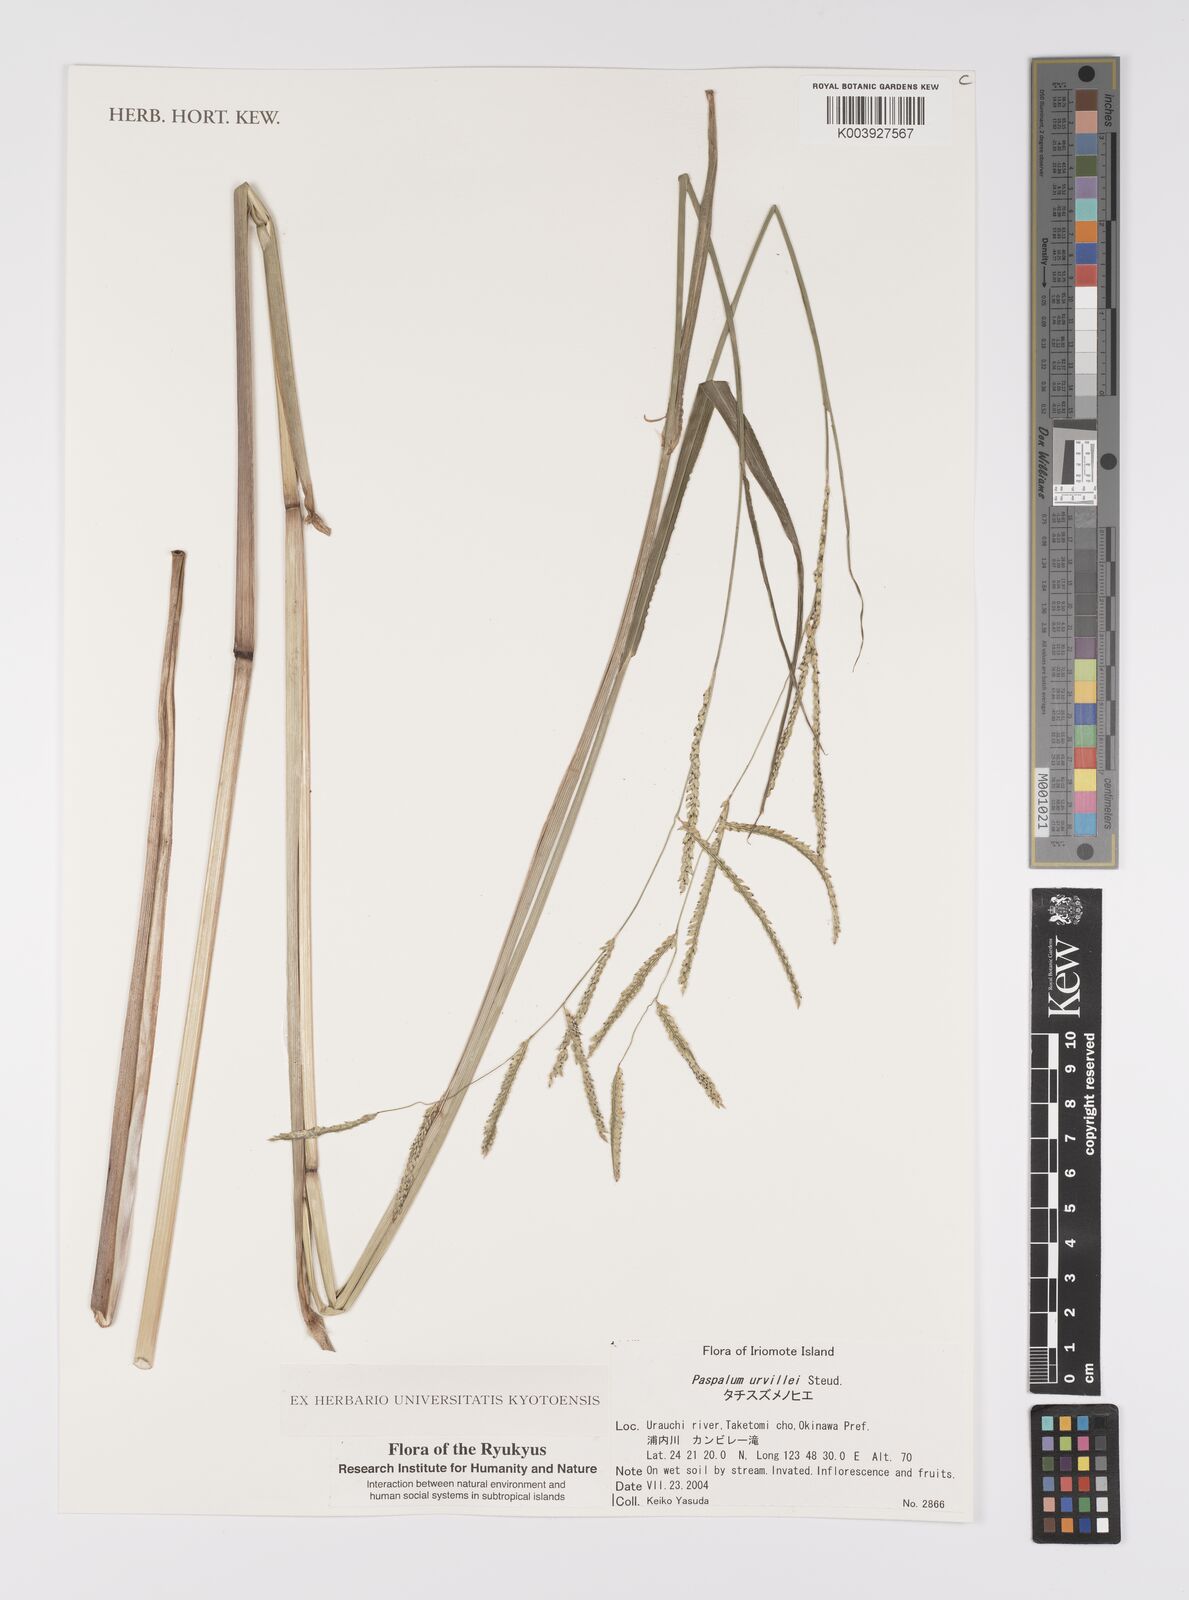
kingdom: Plantae
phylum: Tracheophyta
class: Liliopsida
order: Poales
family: Poaceae
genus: Paspalum
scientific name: Paspalum urvillei
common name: Vasey's grass
